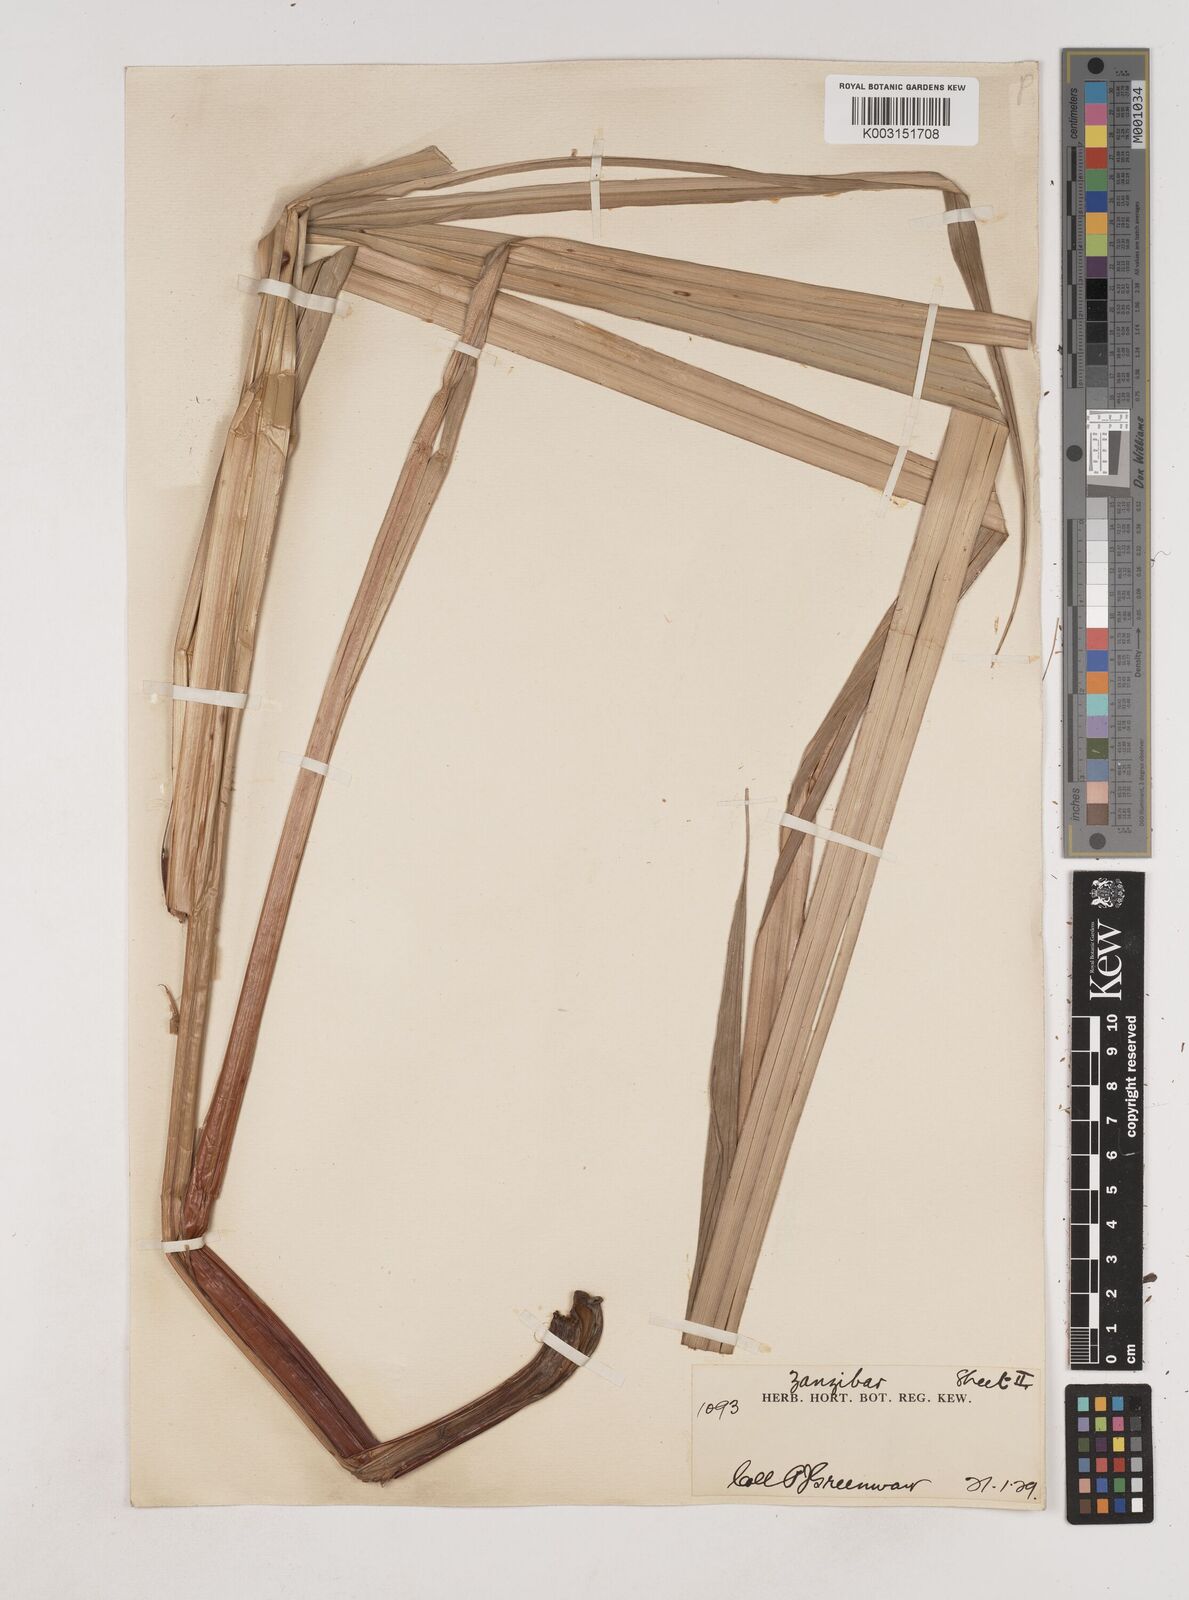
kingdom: Plantae
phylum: Tracheophyta
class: Liliopsida
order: Poales
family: Cyperaceae
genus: Cyperus
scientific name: Cyperus exaltatus
